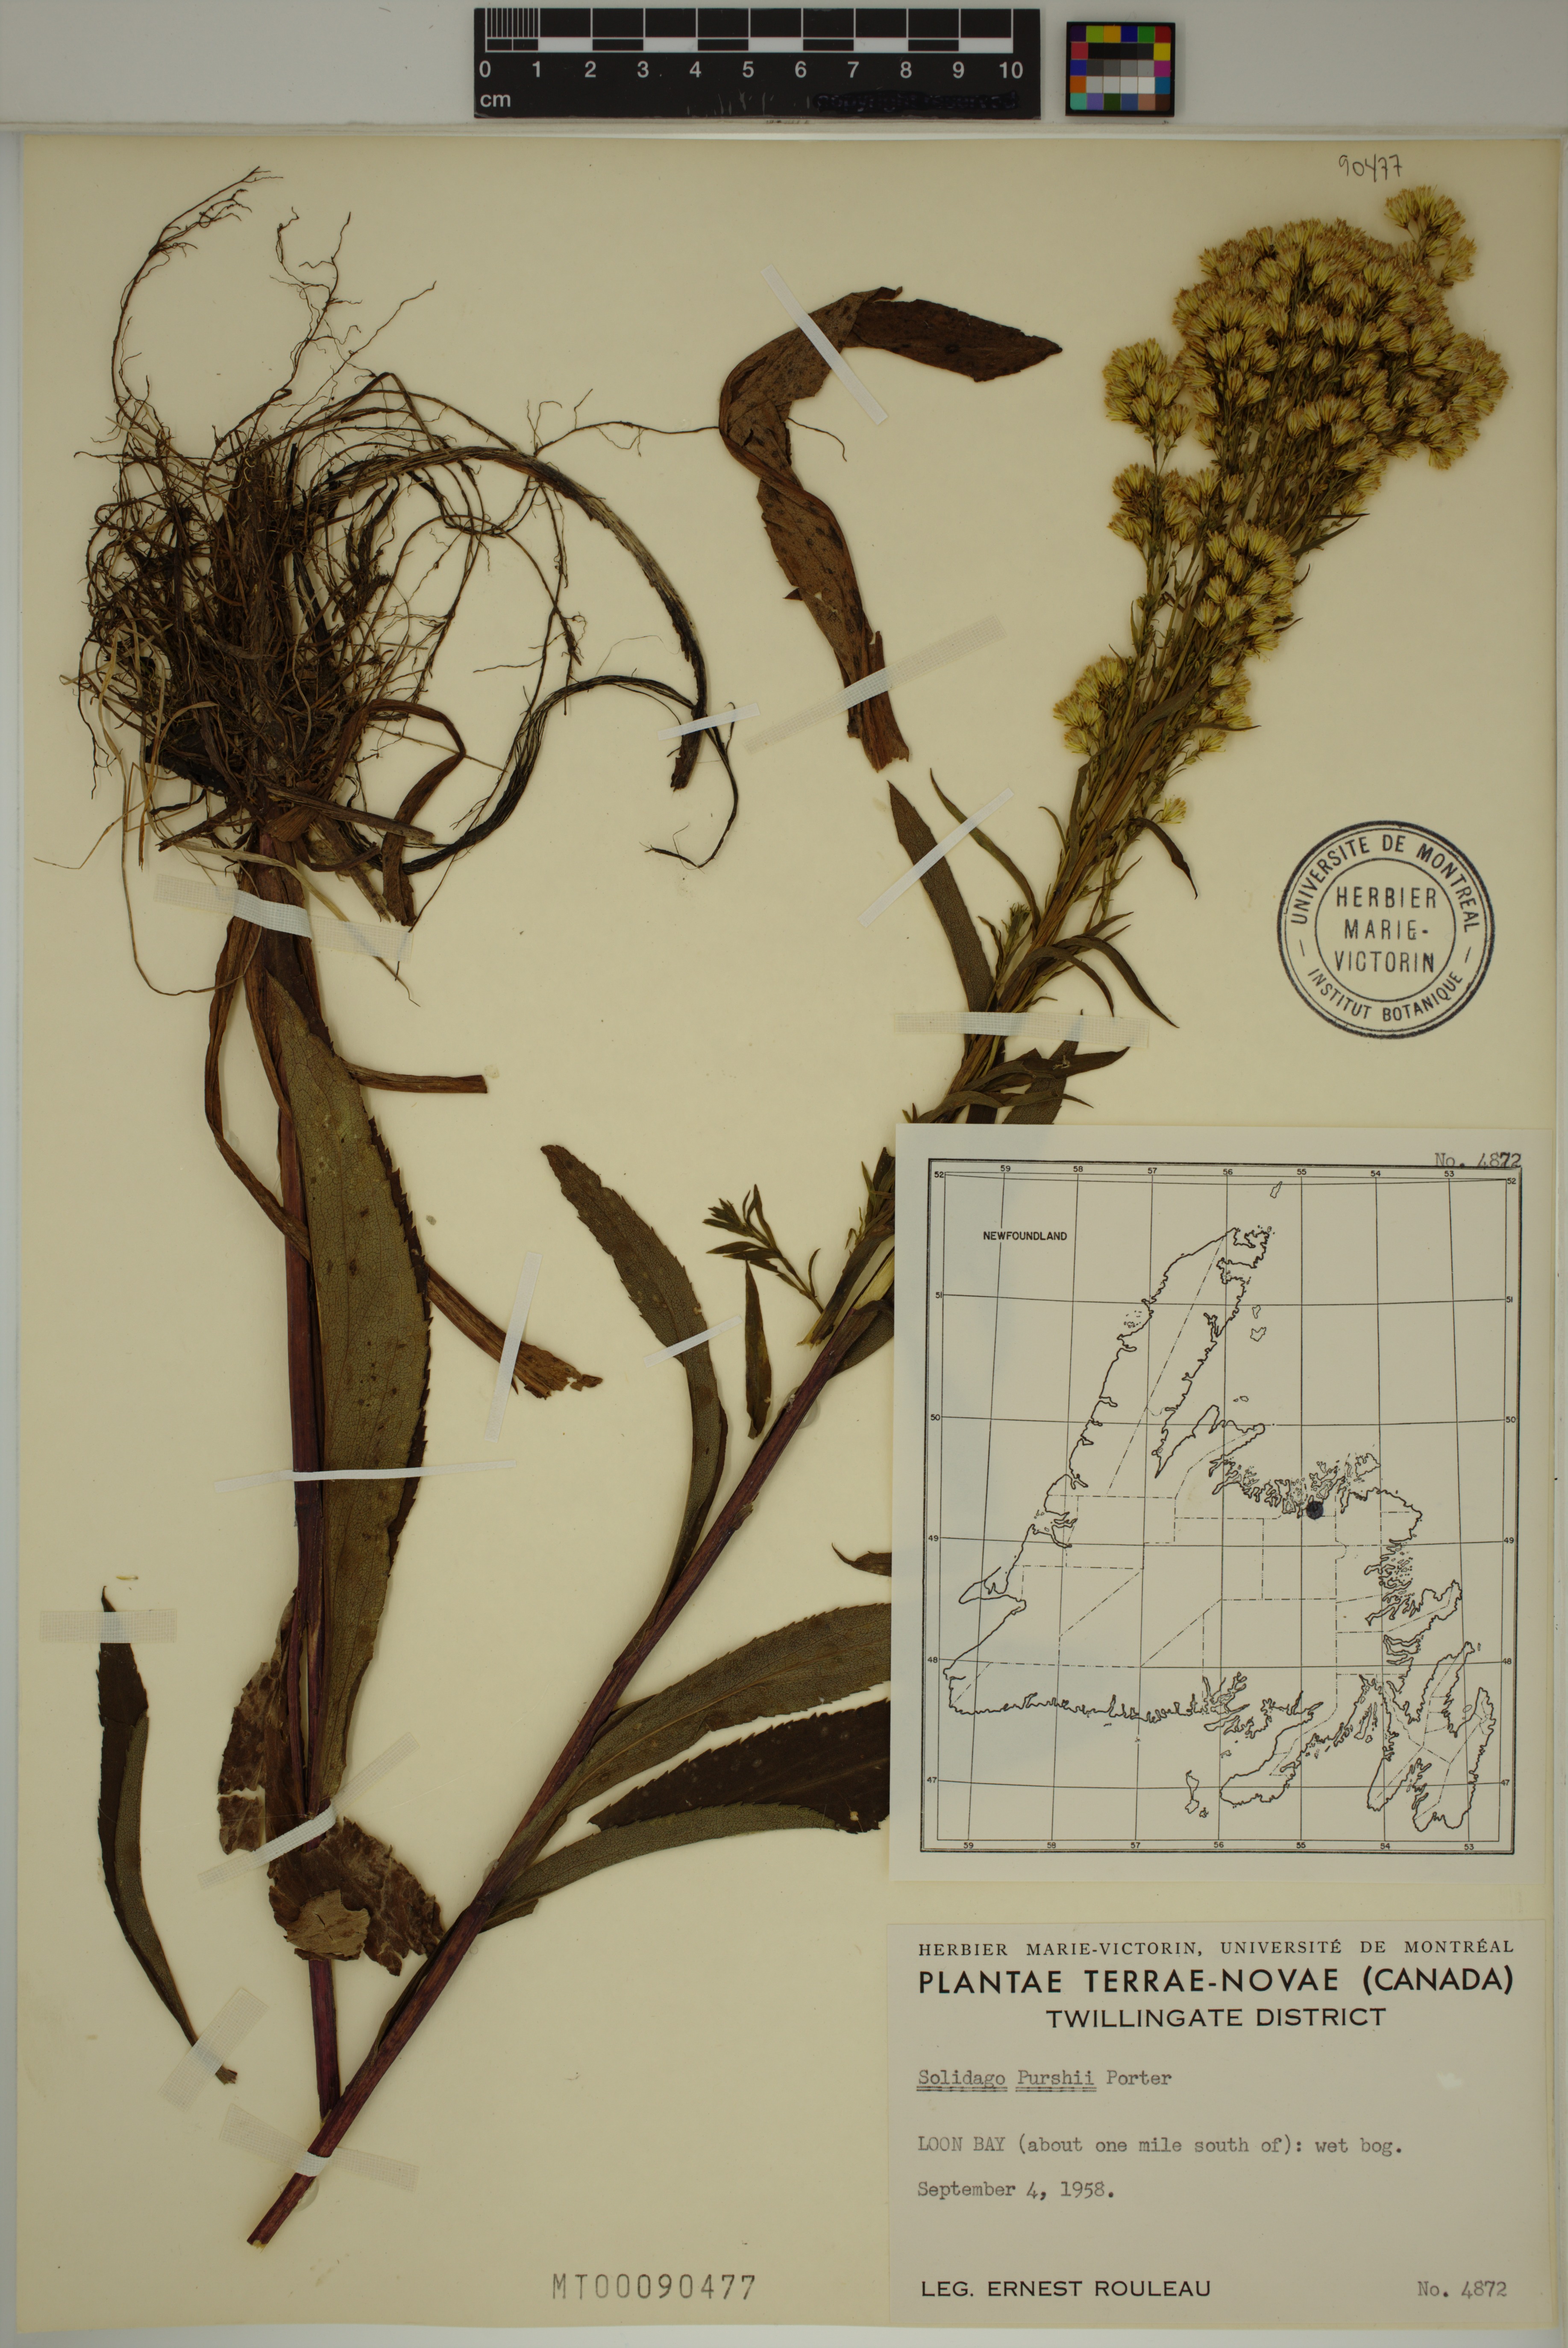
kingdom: Plantae
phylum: Tracheophyta
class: Magnoliopsida
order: Asterales
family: Asteraceae
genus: Solidago
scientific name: Solidago uliginosa
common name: Bog goldenrod
